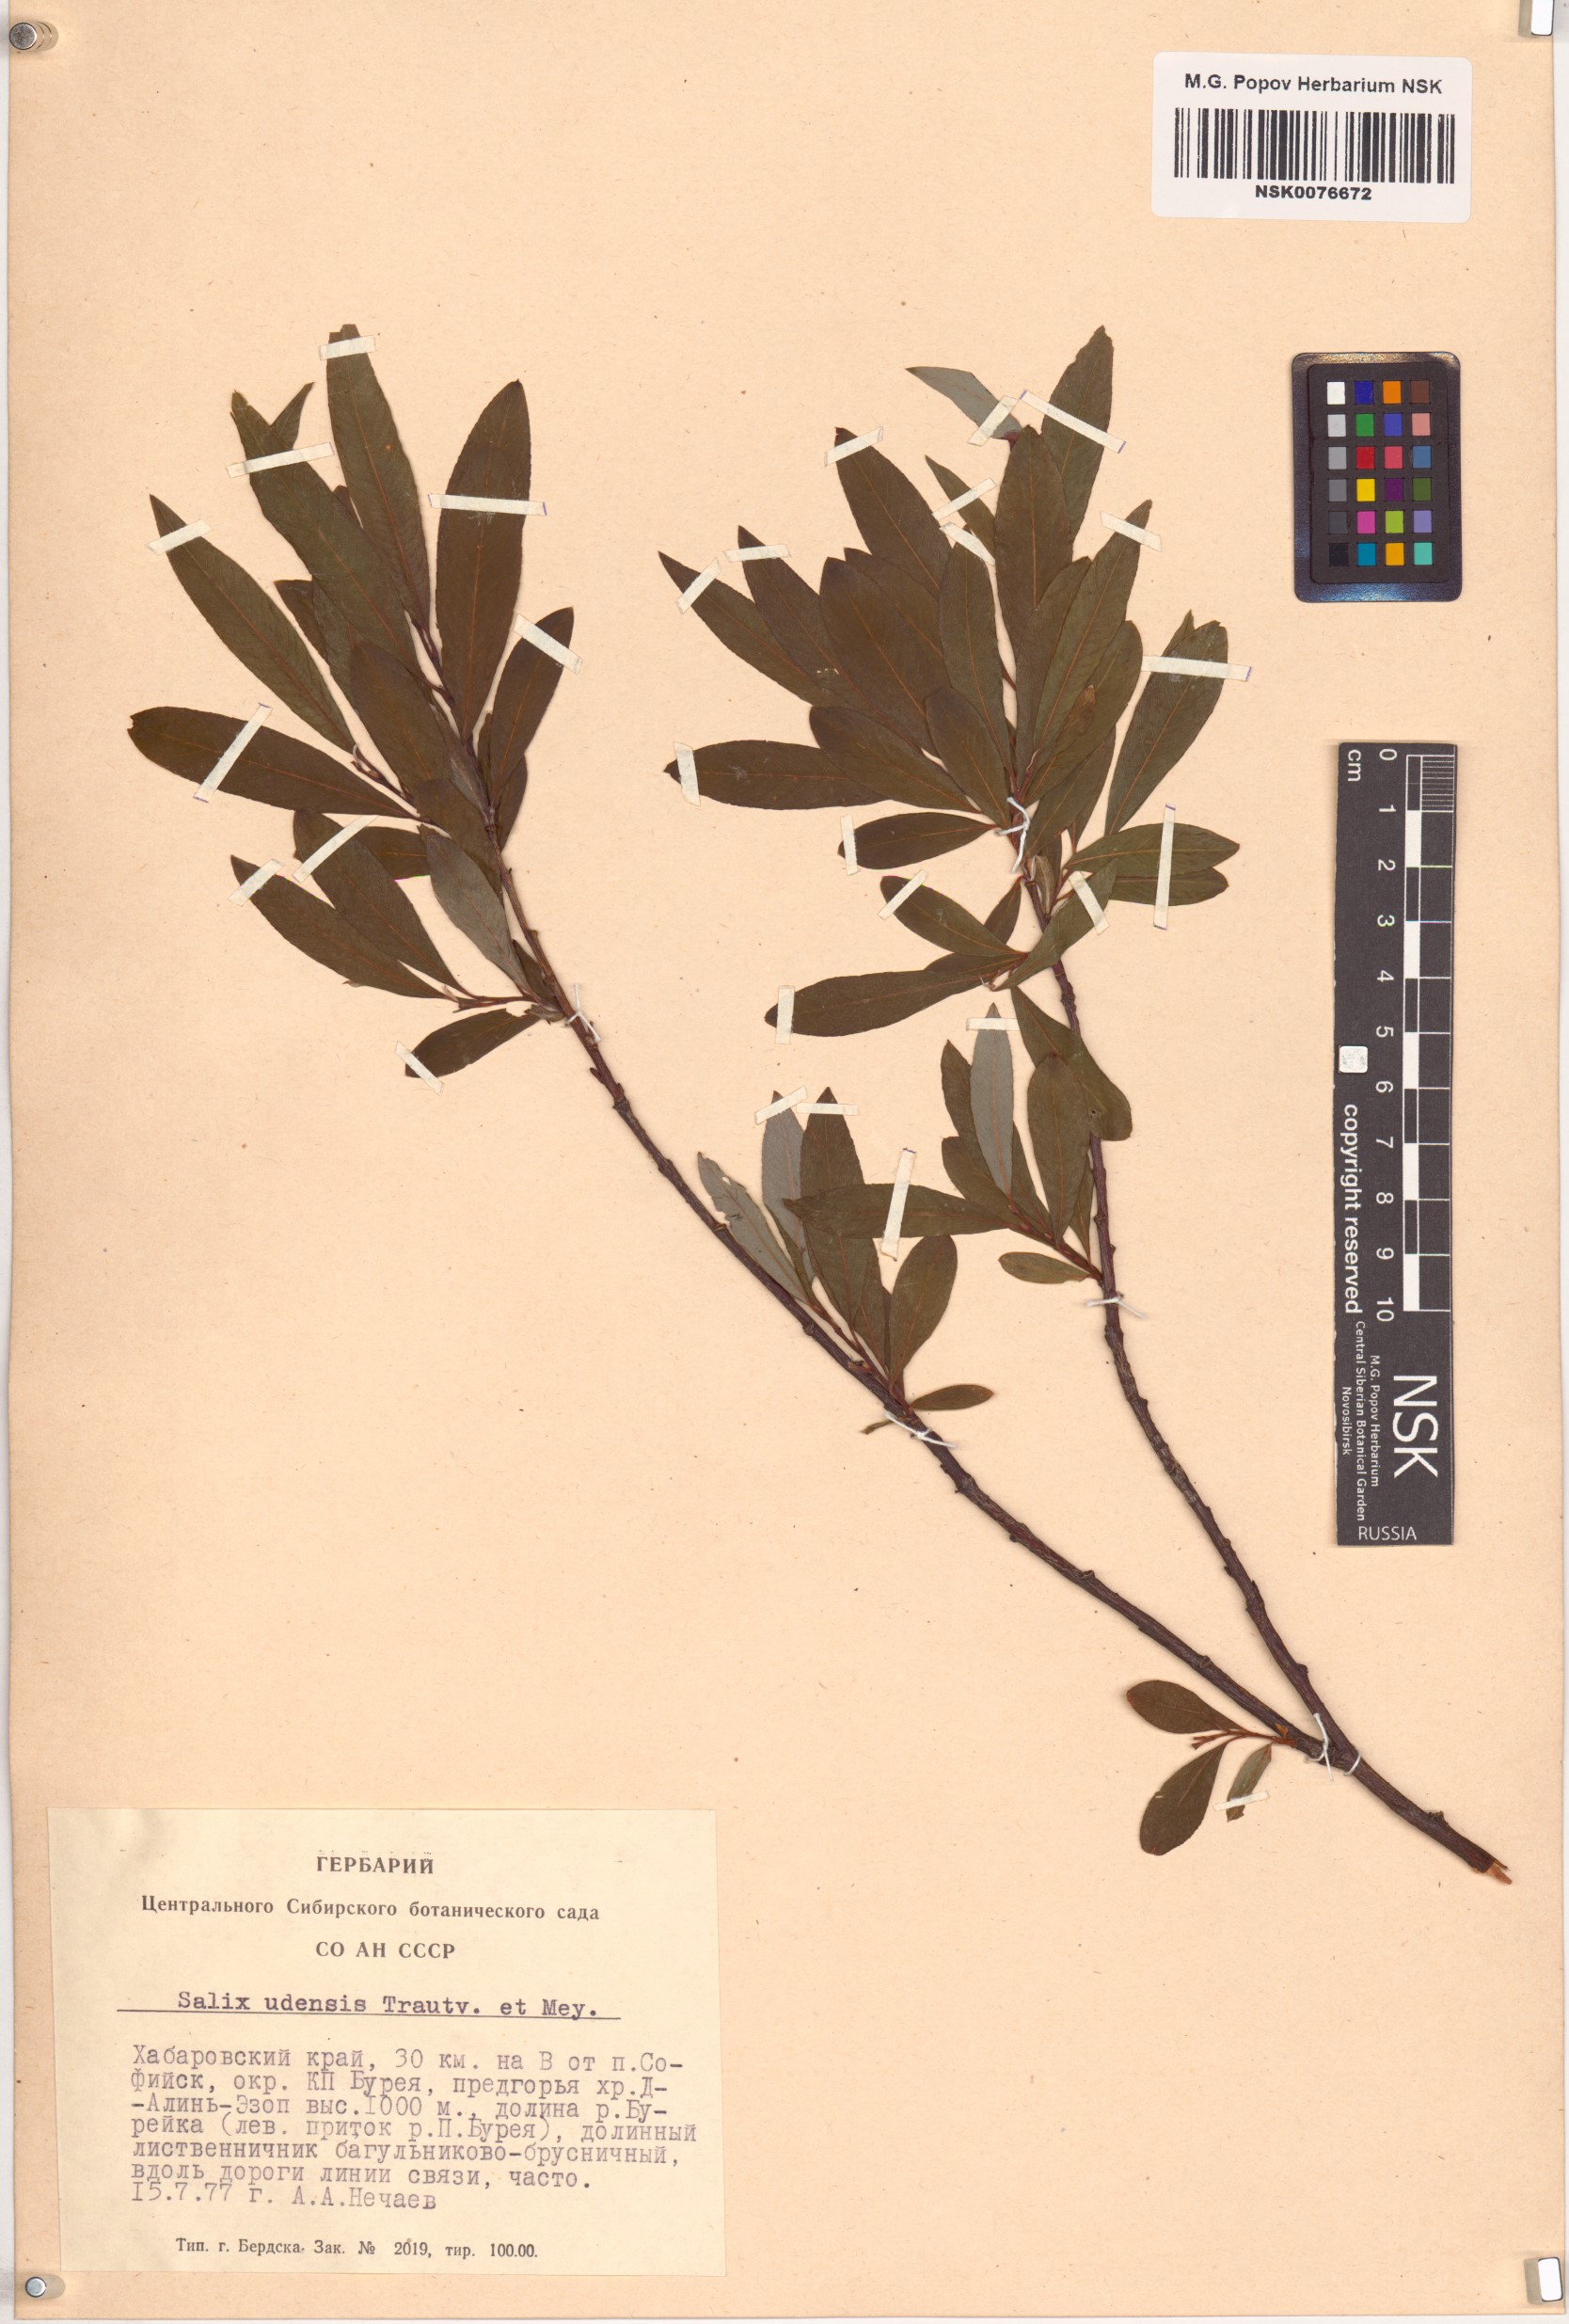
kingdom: Plantae
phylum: Tracheophyta
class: Magnoliopsida
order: Malpighiales
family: Salicaceae
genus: Salix
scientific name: Salix udensis
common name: Sachalin willow
